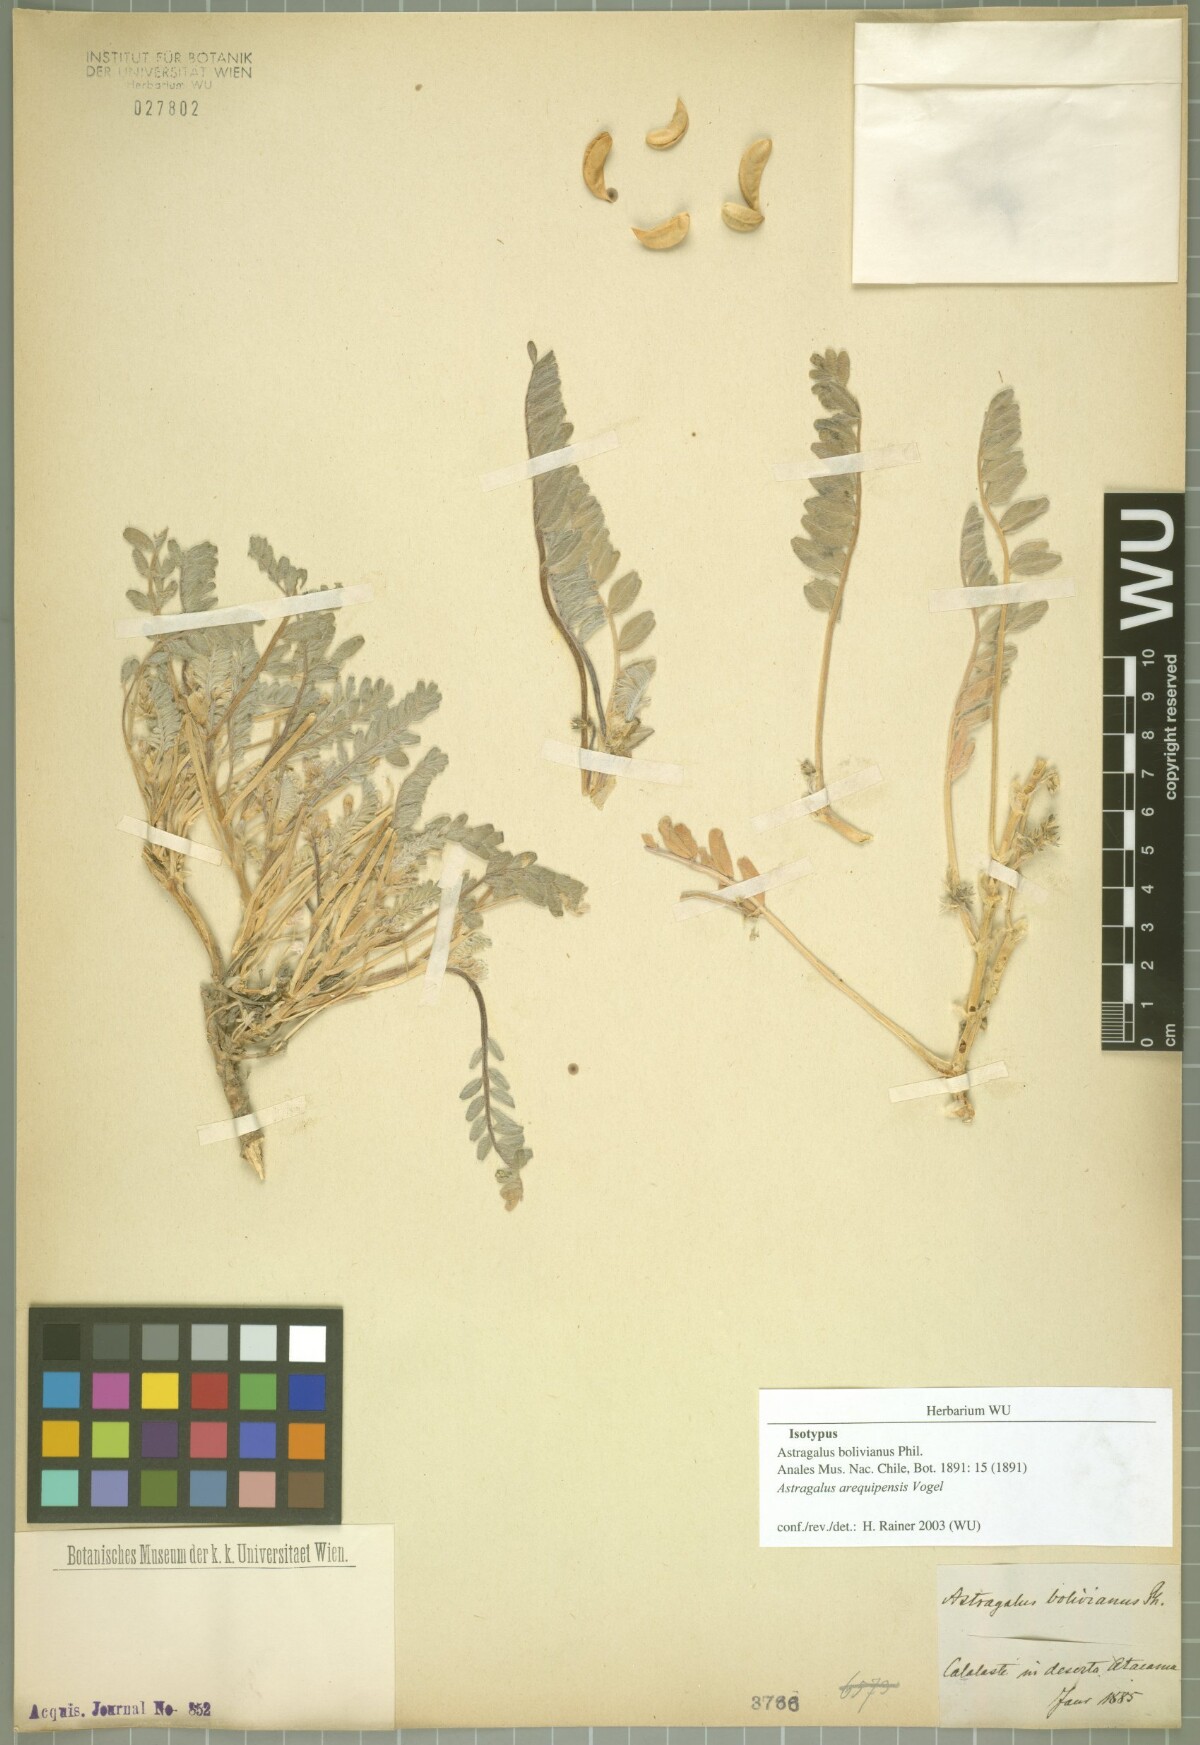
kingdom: Plantae
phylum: Tracheophyta
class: Magnoliopsida
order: Fabales
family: Fabaceae
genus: Astragalus
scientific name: Astragalus arequipensis
